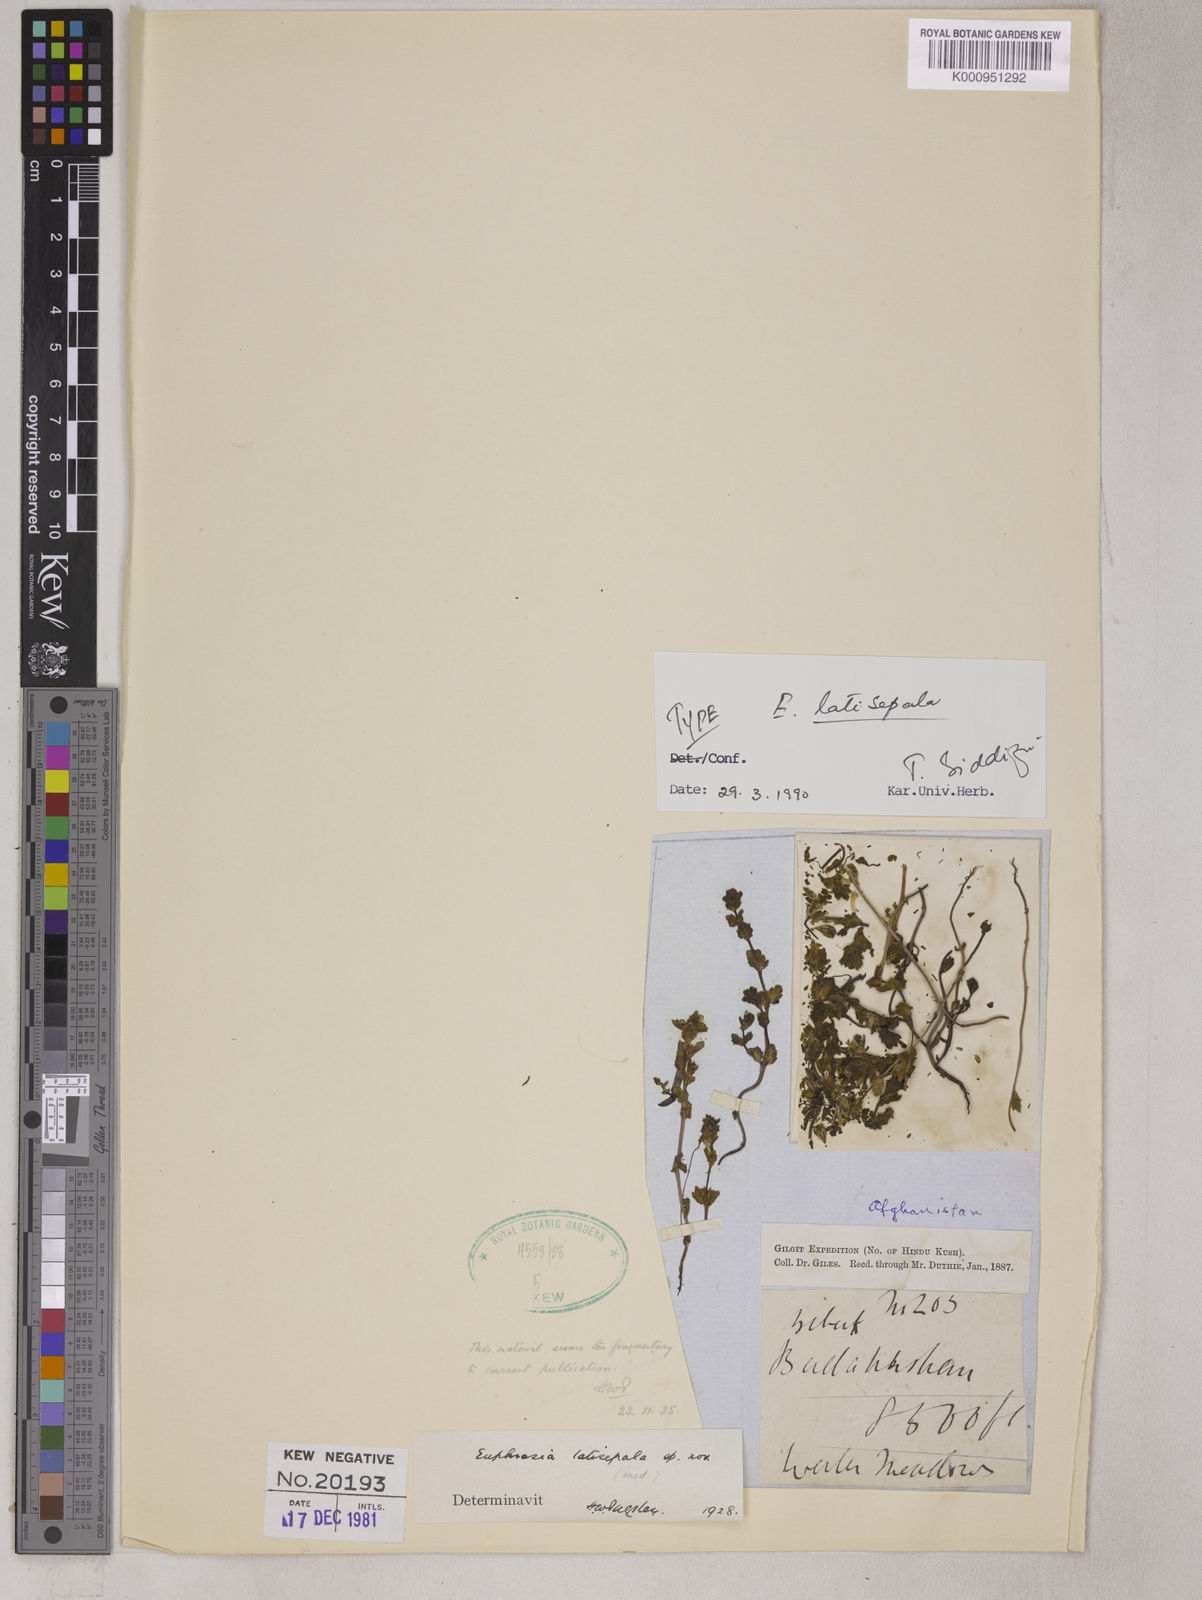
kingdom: Plantae
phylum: Tracheophyta
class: Magnoliopsida
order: Lamiales
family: Orobanchaceae
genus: Euphrasia
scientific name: Euphrasia
